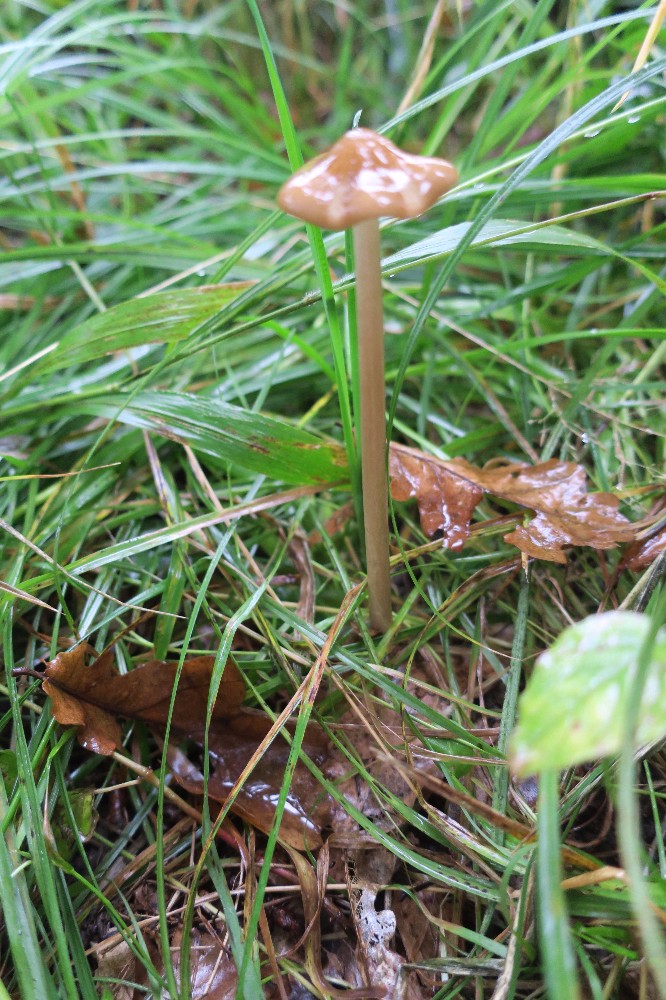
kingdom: Fungi
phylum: Basidiomycota
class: Agaricomycetes
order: Agaricales
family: Physalacriaceae
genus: Hymenopellis
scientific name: Hymenopellis radicata
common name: almindelig pælerodshat
